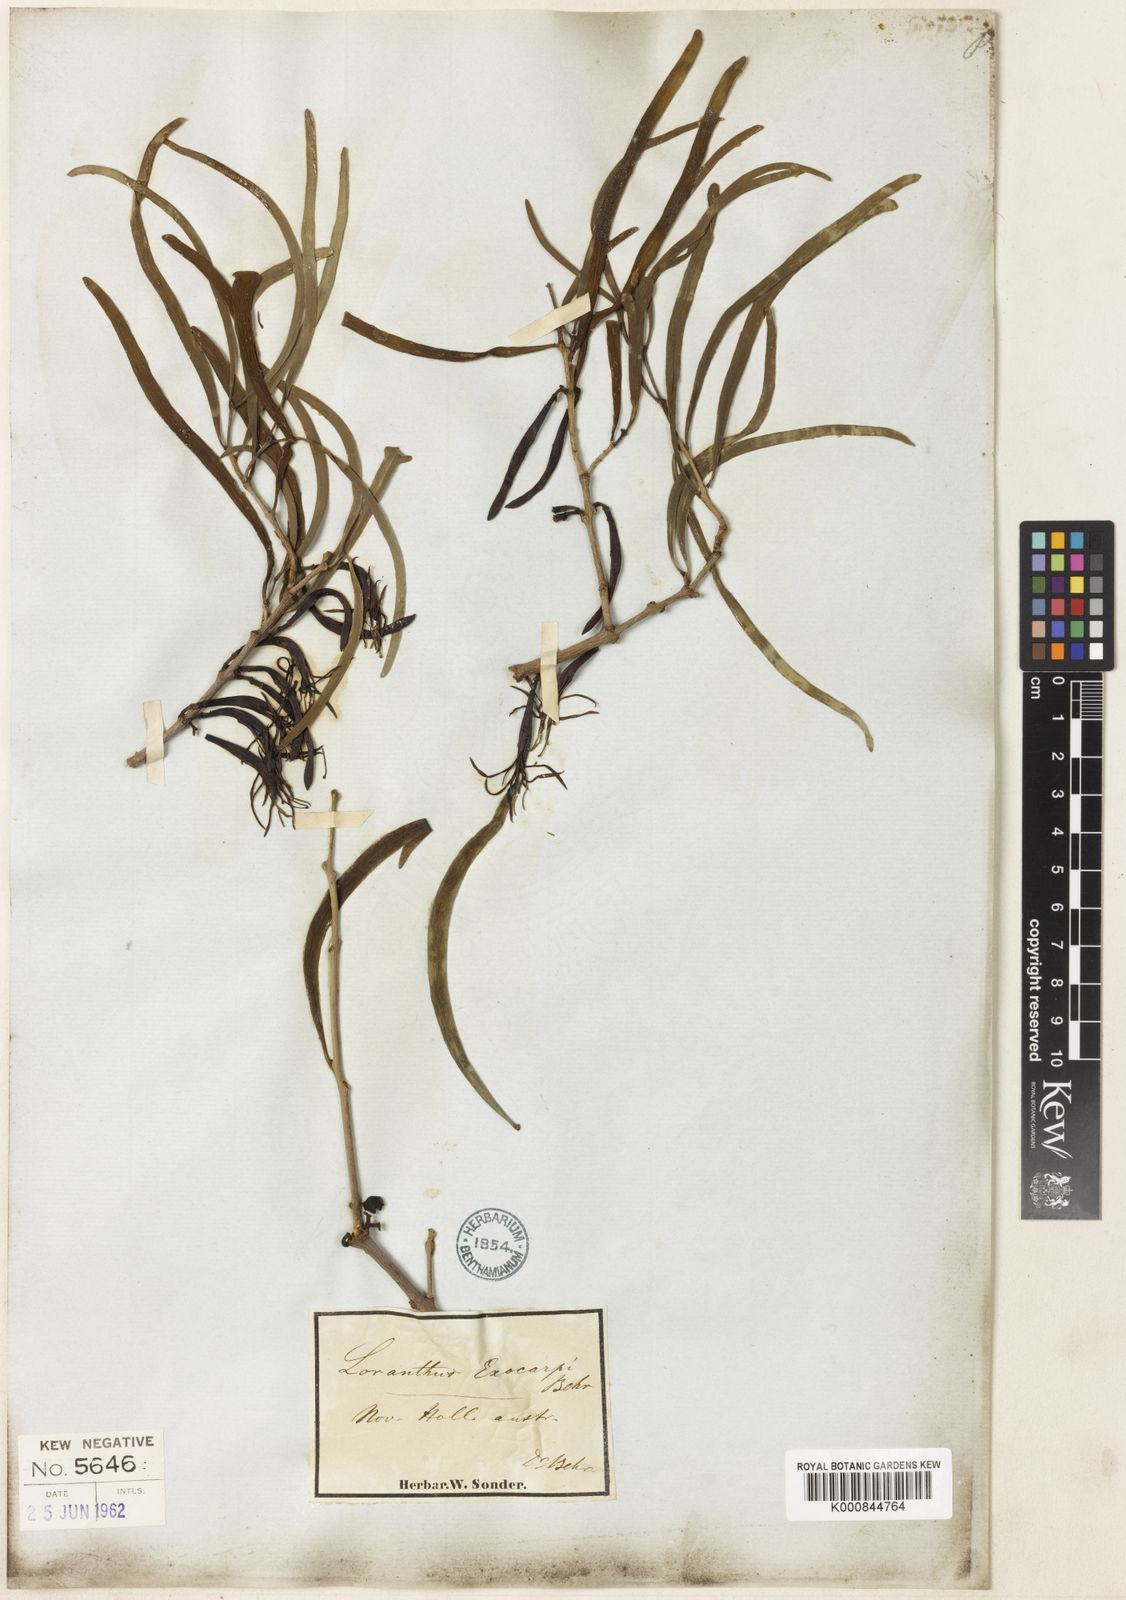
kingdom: Plantae
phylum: Tracheophyta
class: Magnoliopsida
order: Santalales
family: Loranthaceae
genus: Lysiana
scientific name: Lysiana exocarpi
